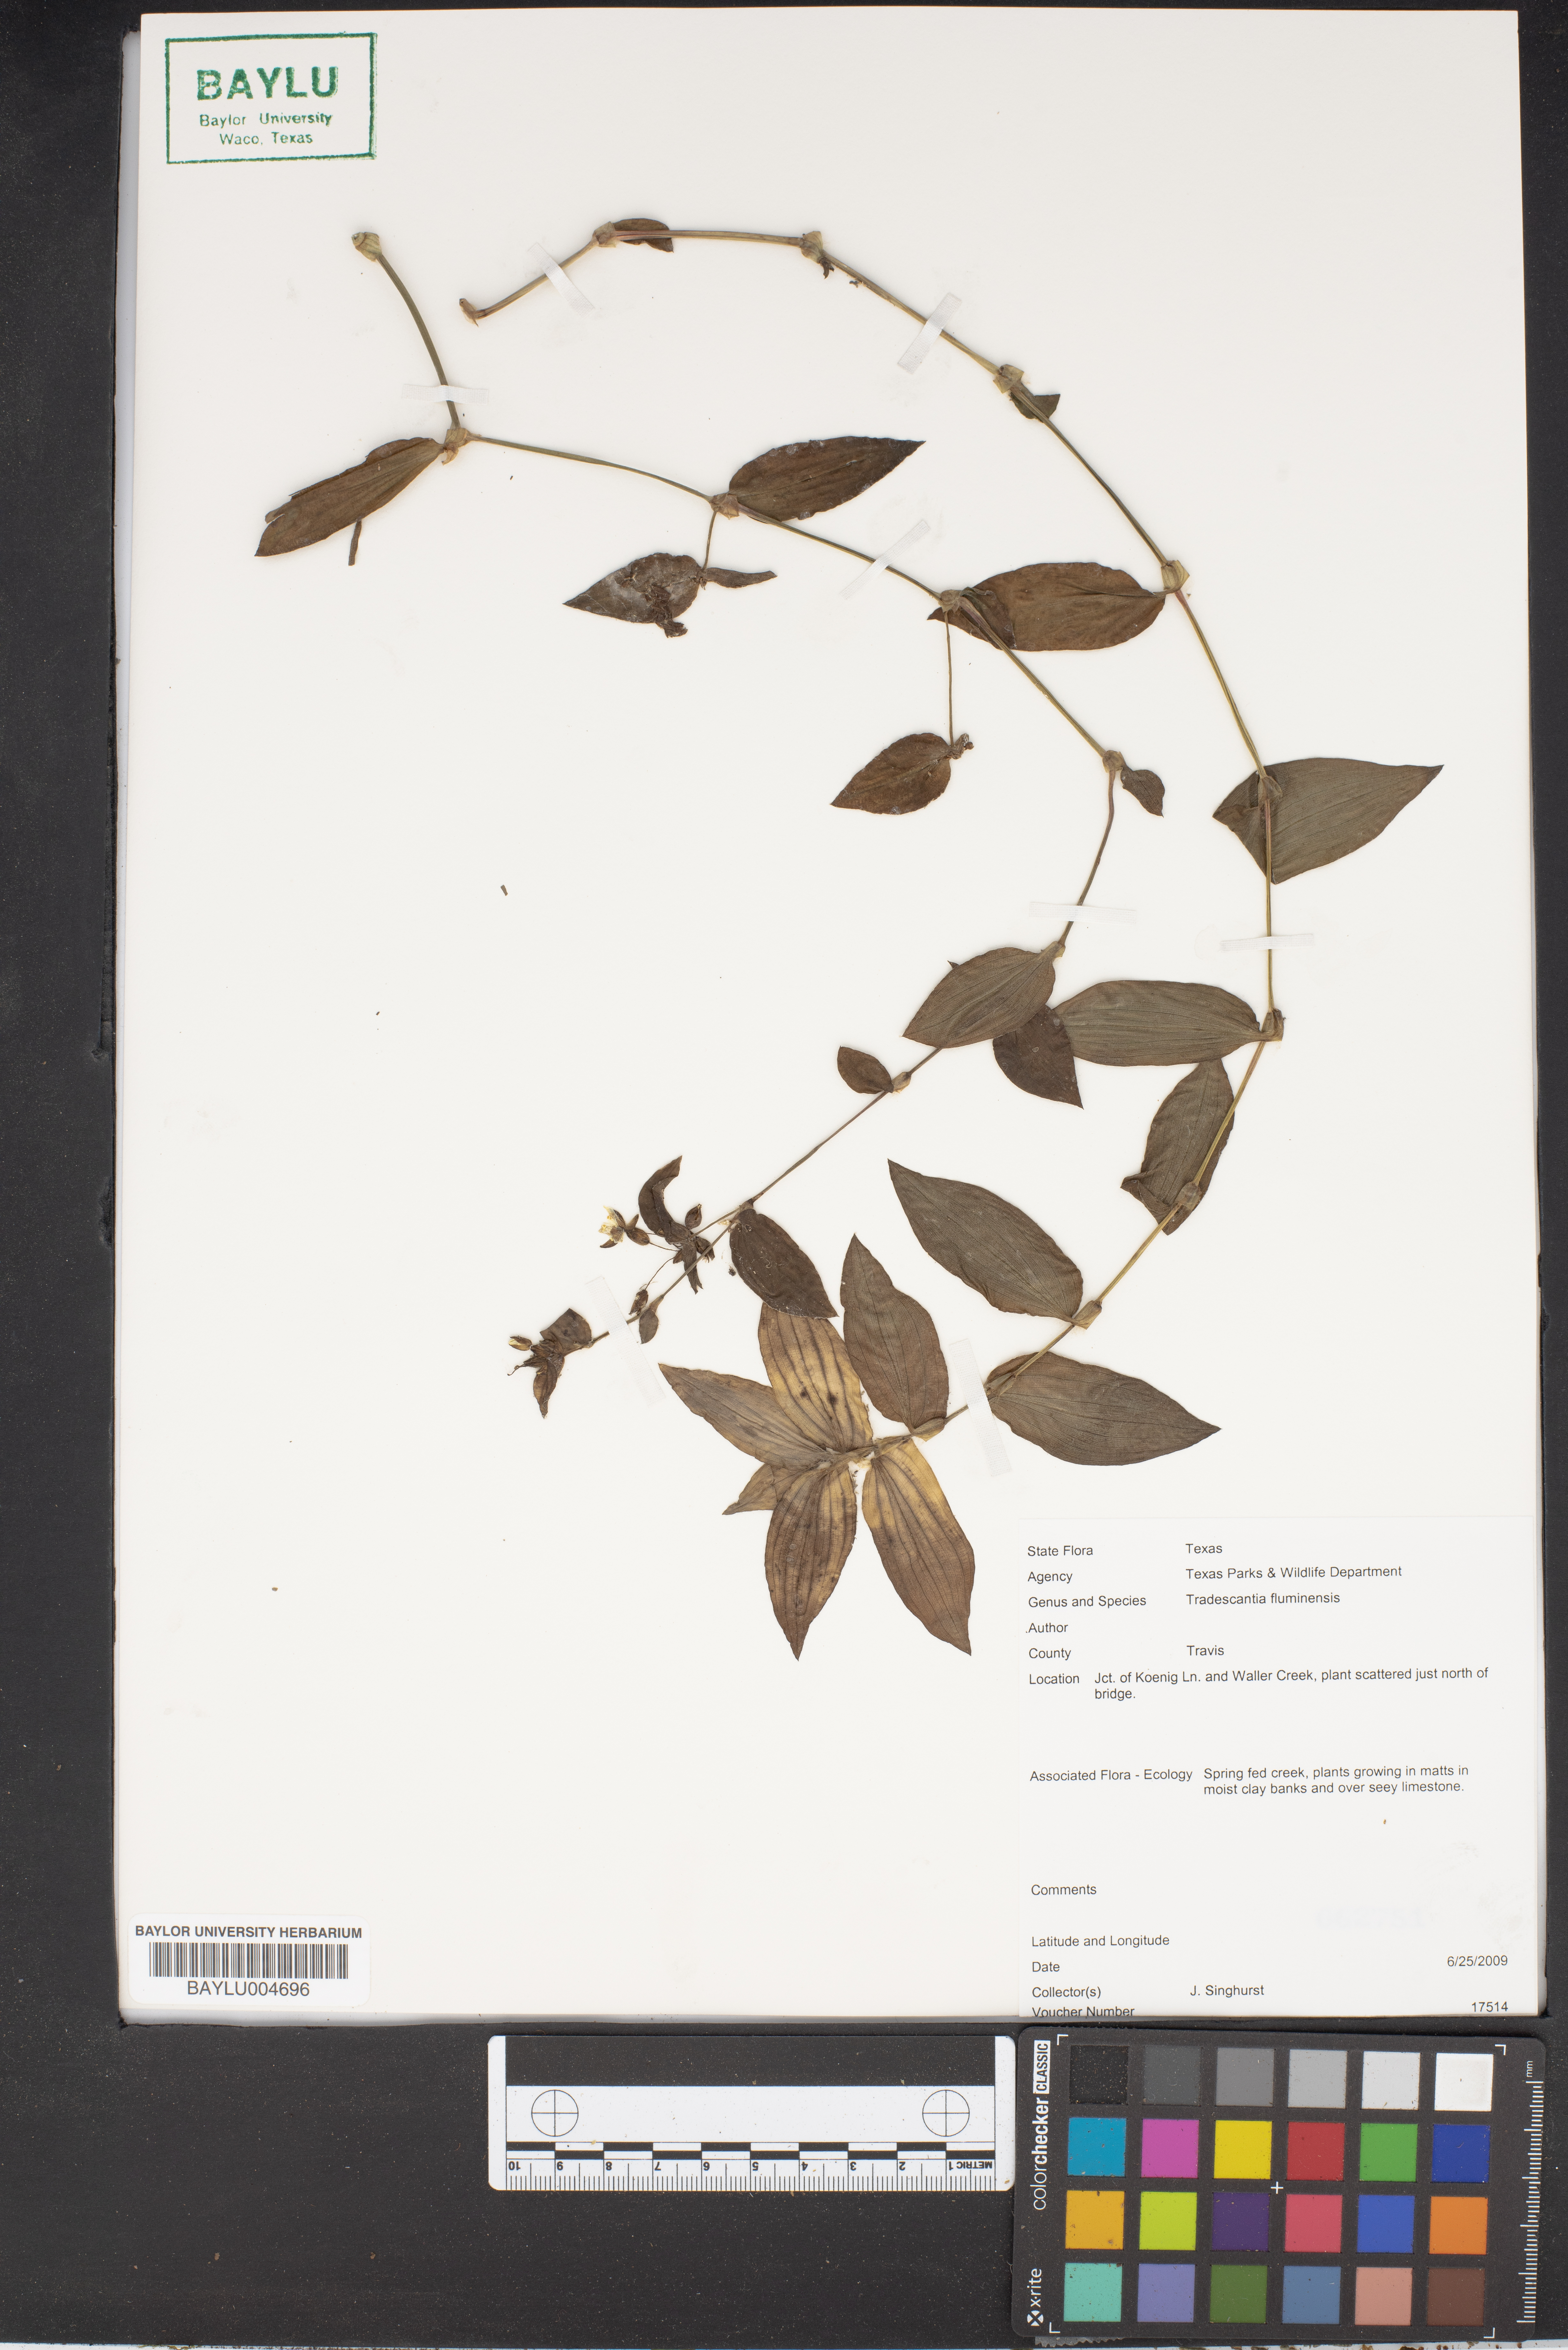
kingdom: Plantae
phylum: Tracheophyta
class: Liliopsida
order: Commelinales
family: Commelinaceae
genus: Tradescantia
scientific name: Tradescantia fluminensis
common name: Wandering-jew
